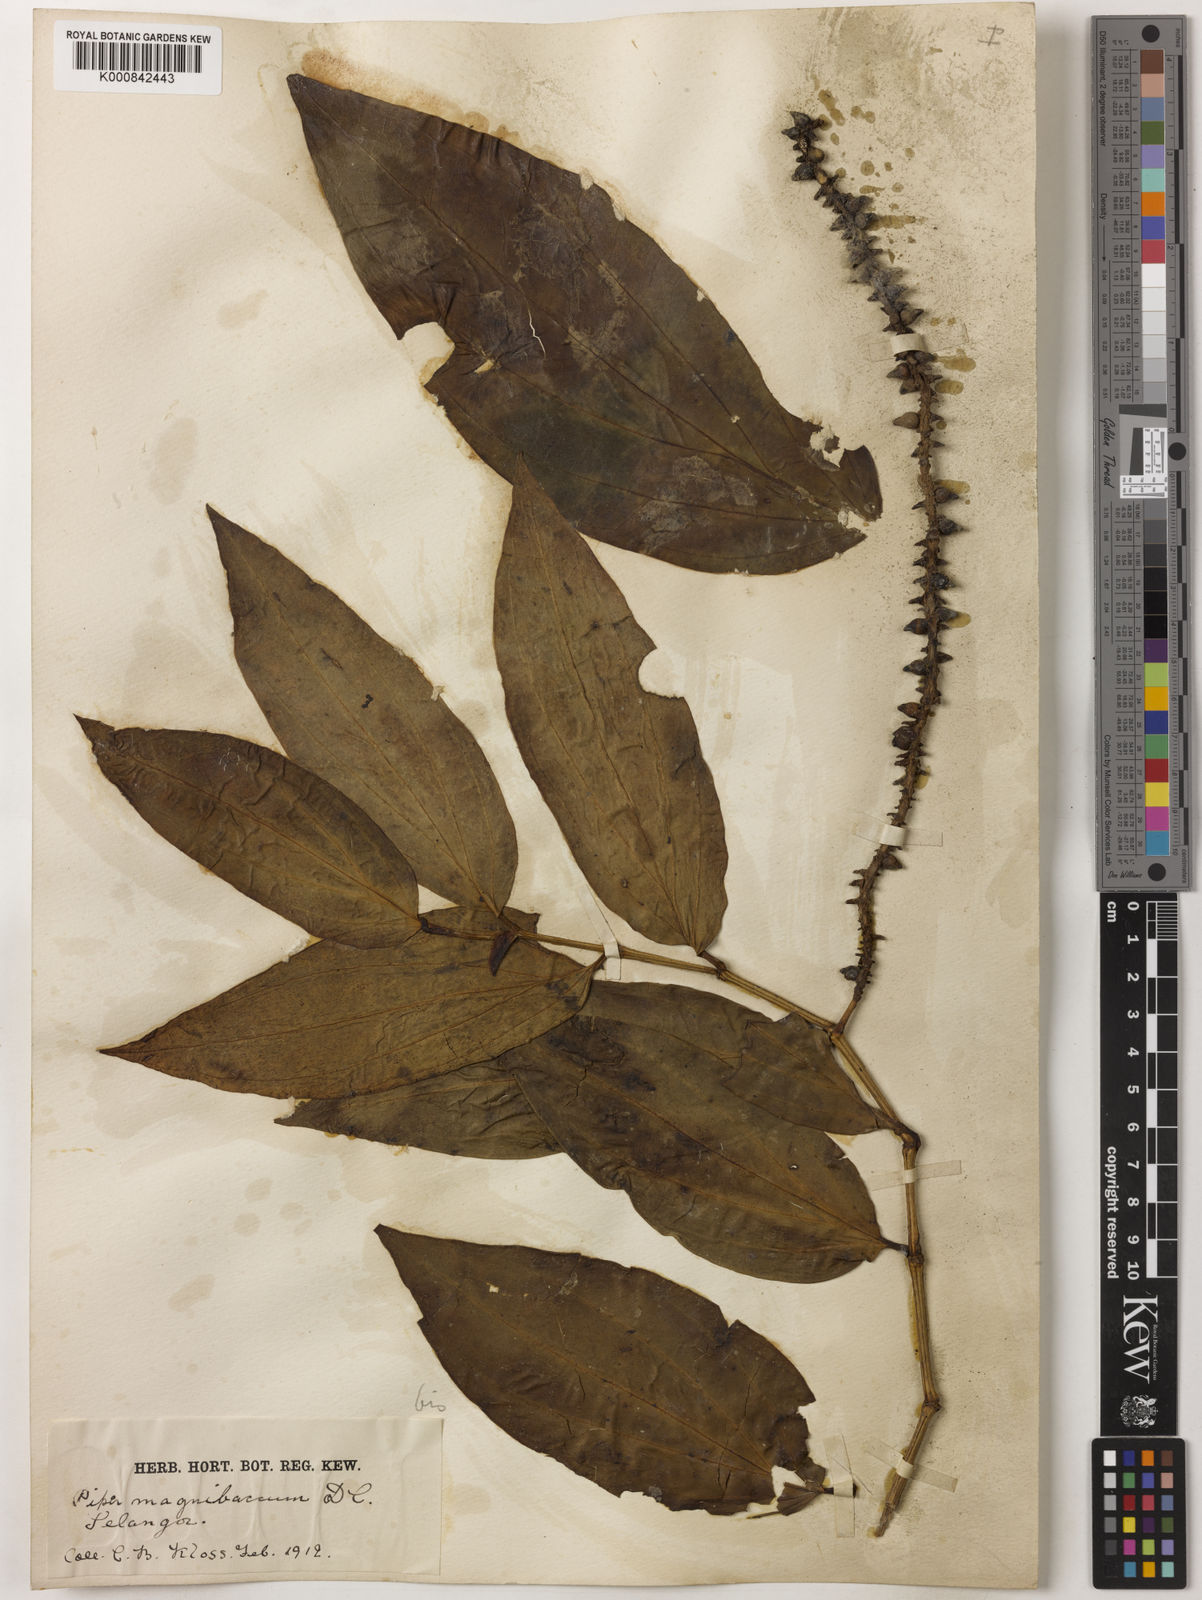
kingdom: Plantae
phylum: Tracheophyta
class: Magnoliopsida
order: Piperales
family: Piperaceae
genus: Piper
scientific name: Piper quinqueangulatum
